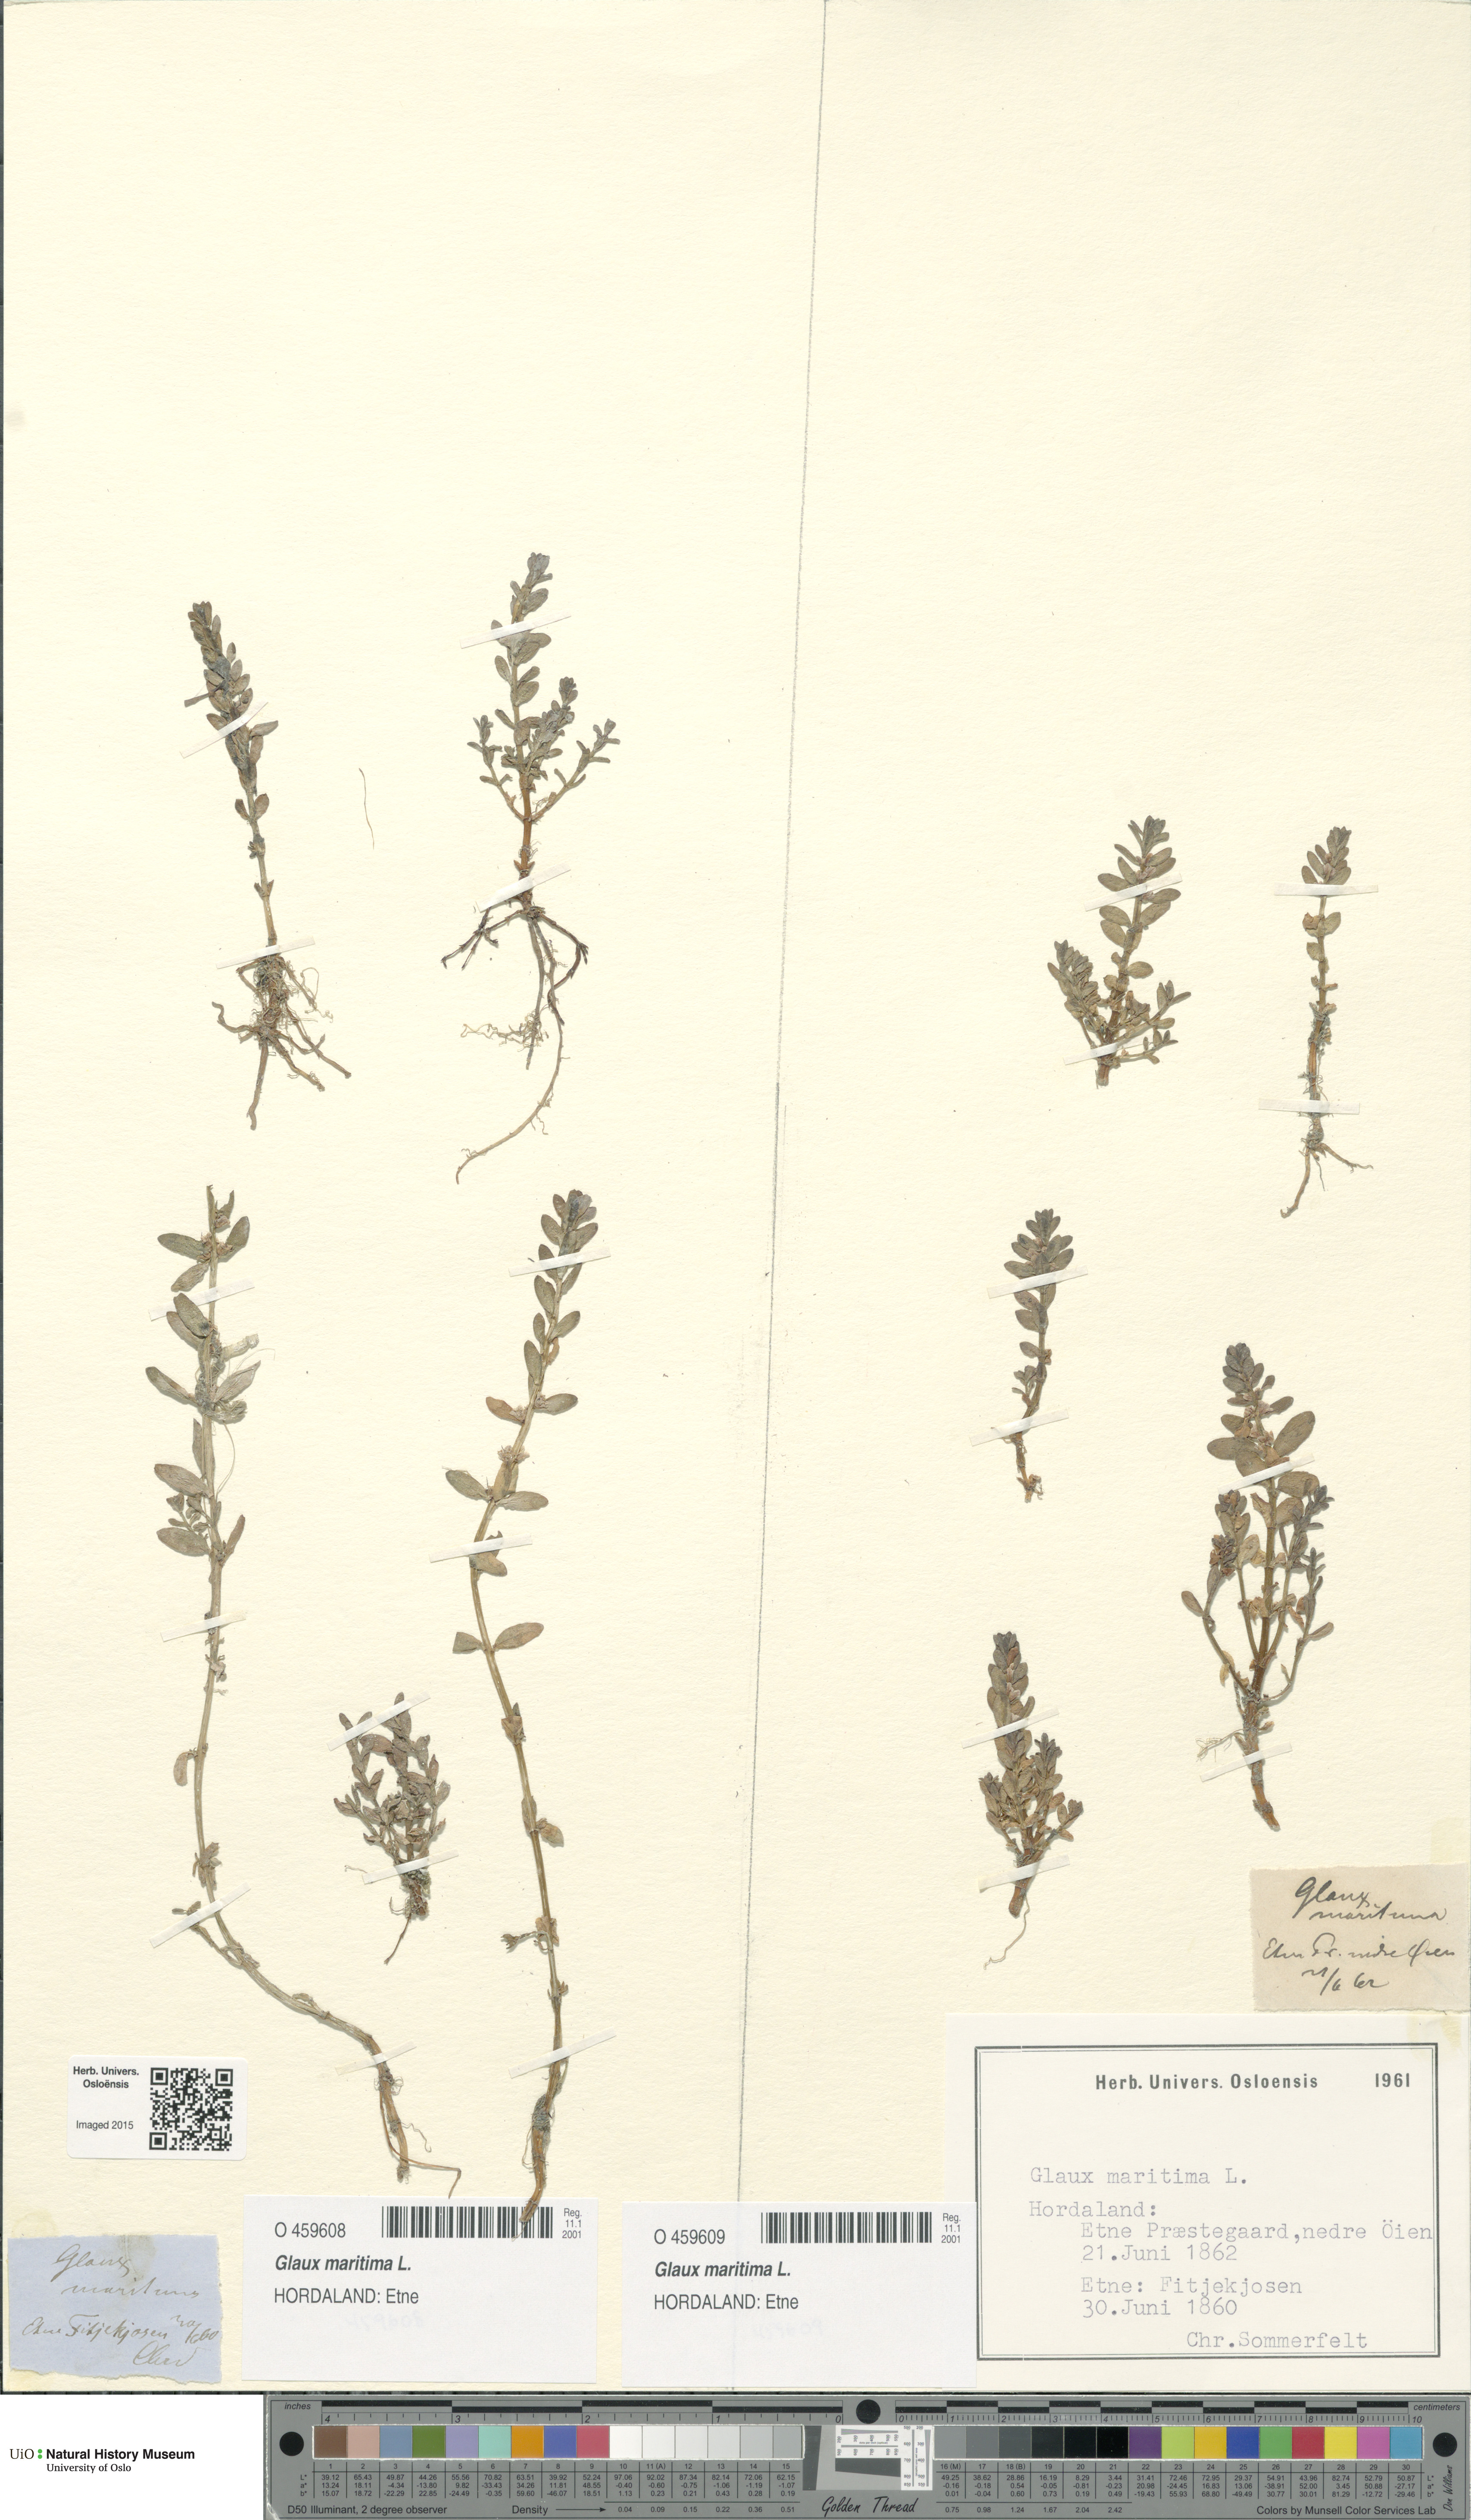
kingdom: Plantae
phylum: Tracheophyta
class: Magnoliopsida
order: Ericales
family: Primulaceae
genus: Lysimachia
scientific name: Lysimachia maritima
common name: Sea milkwort
